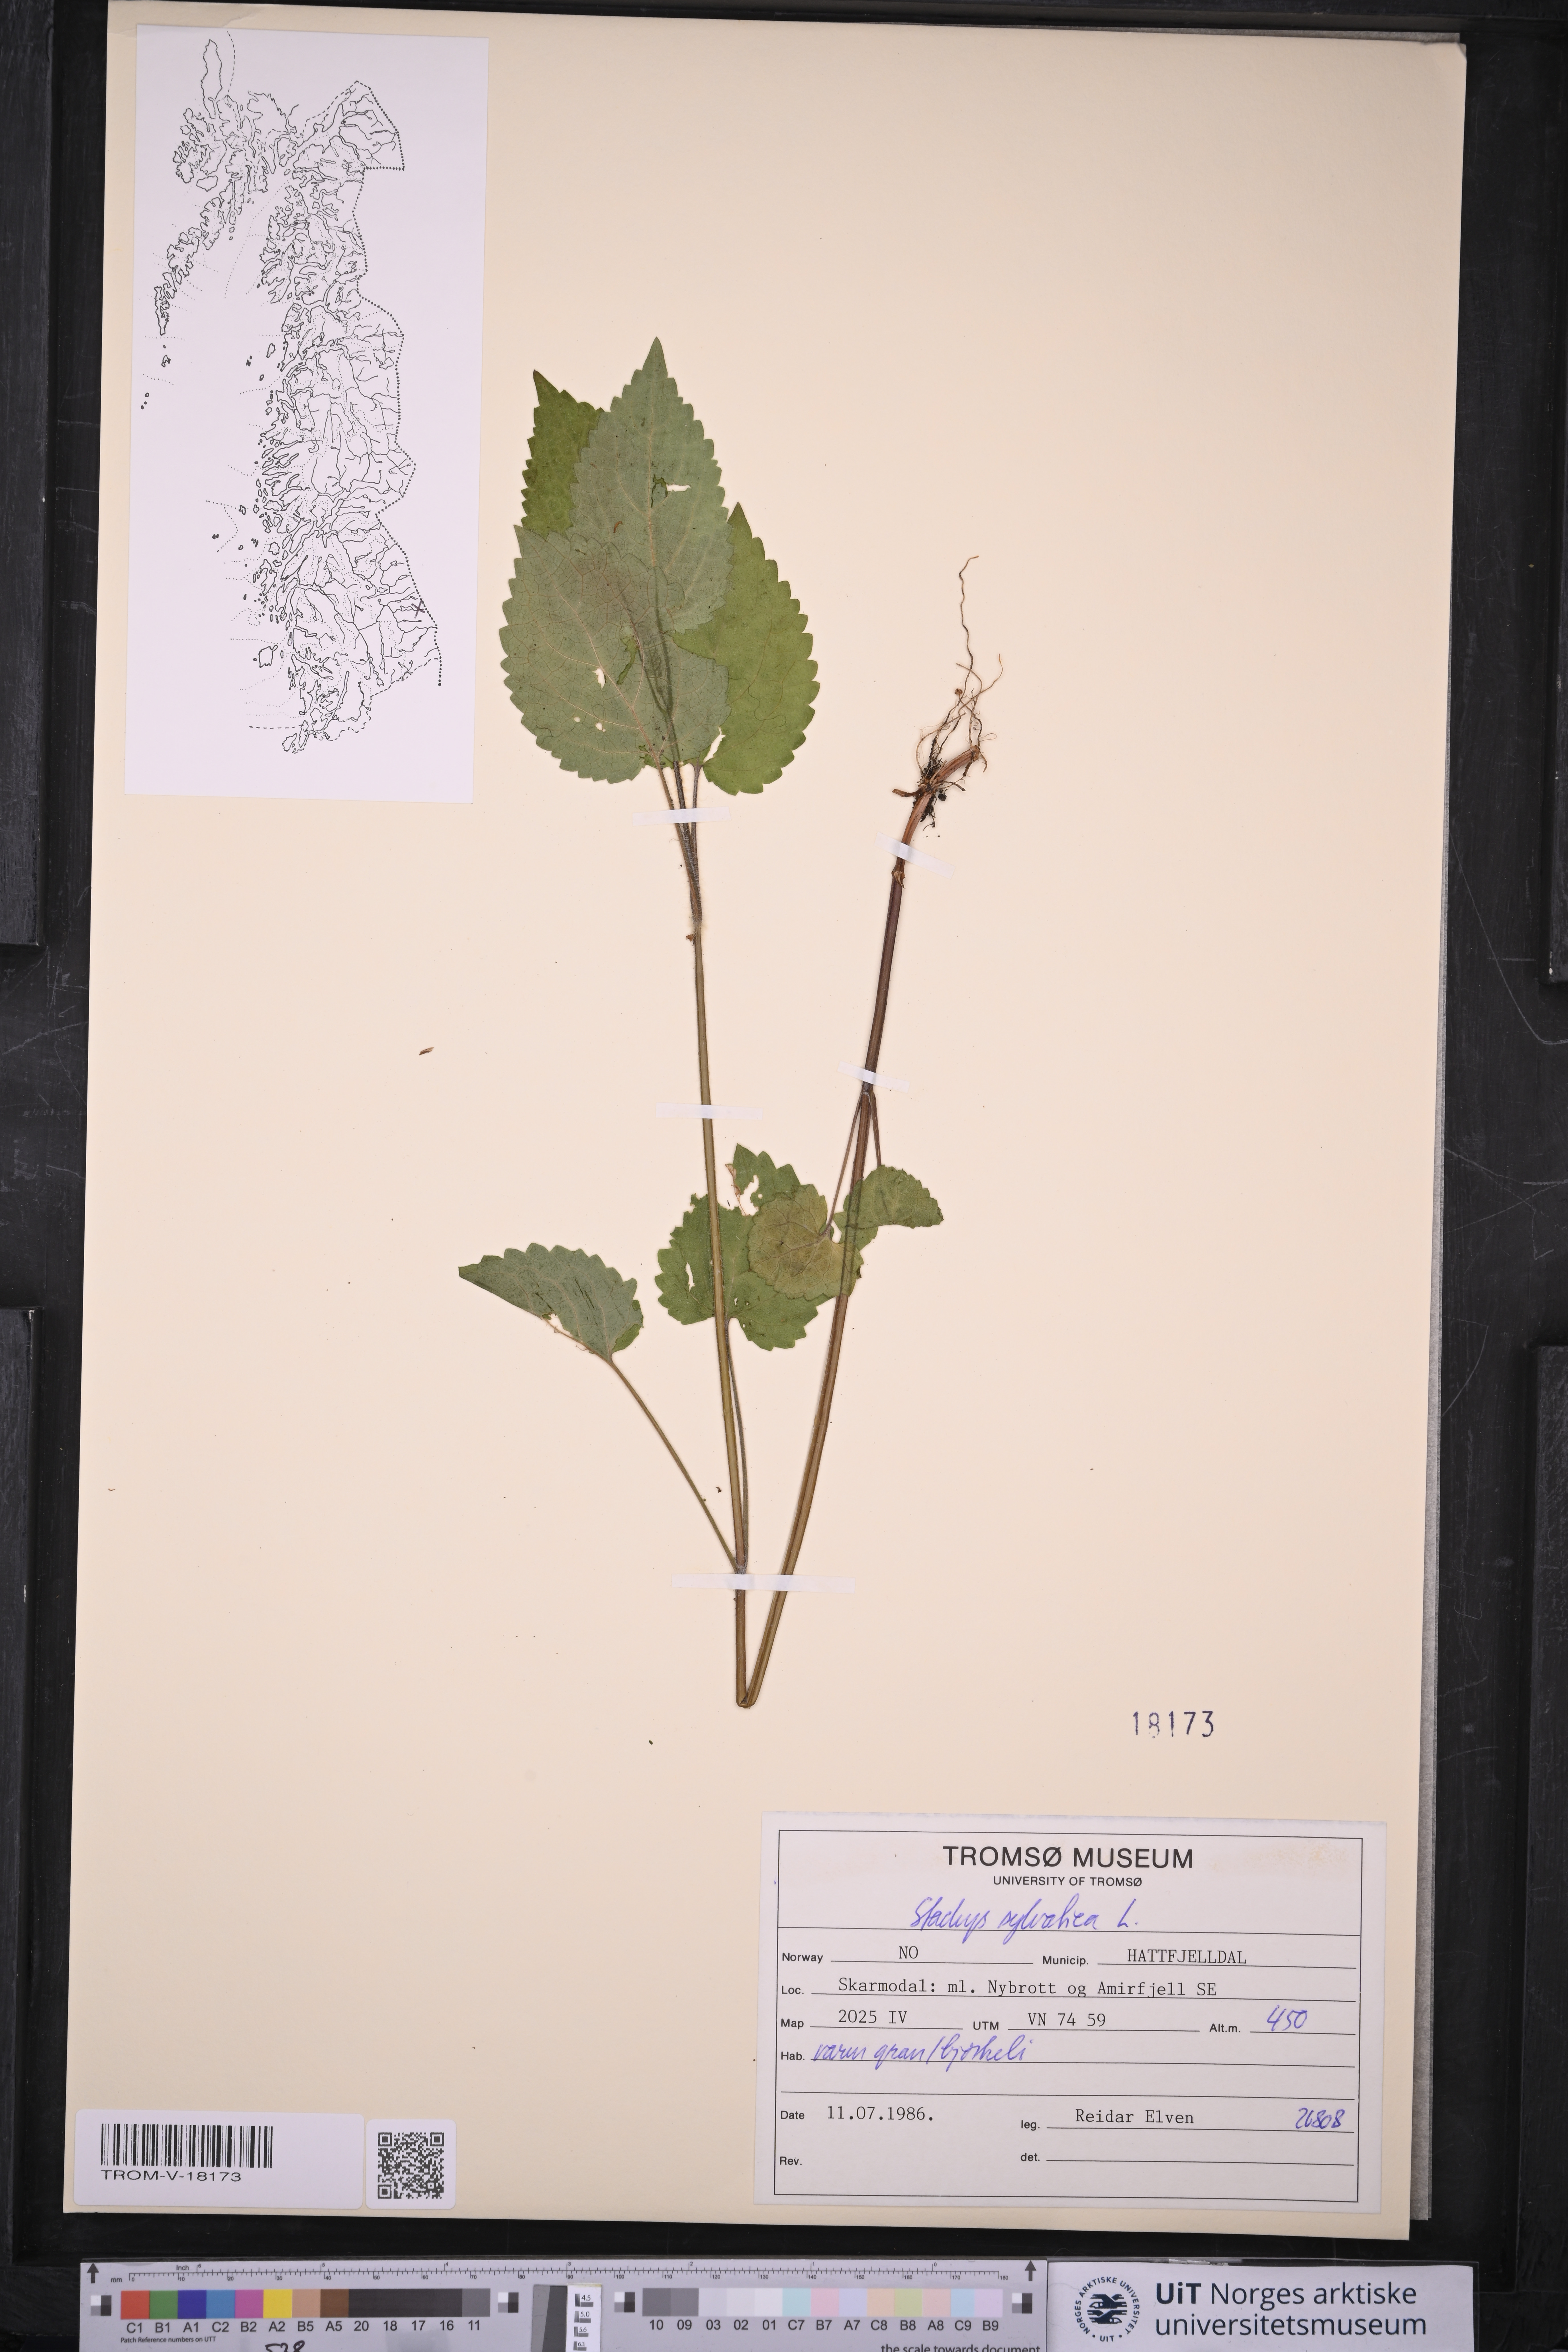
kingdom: Plantae
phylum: Tracheophyta
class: Magnoliopsida
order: Lamiales
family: Lamiaceae
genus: Stachys
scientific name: Stachys sylvatica
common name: Hedge woundwort
